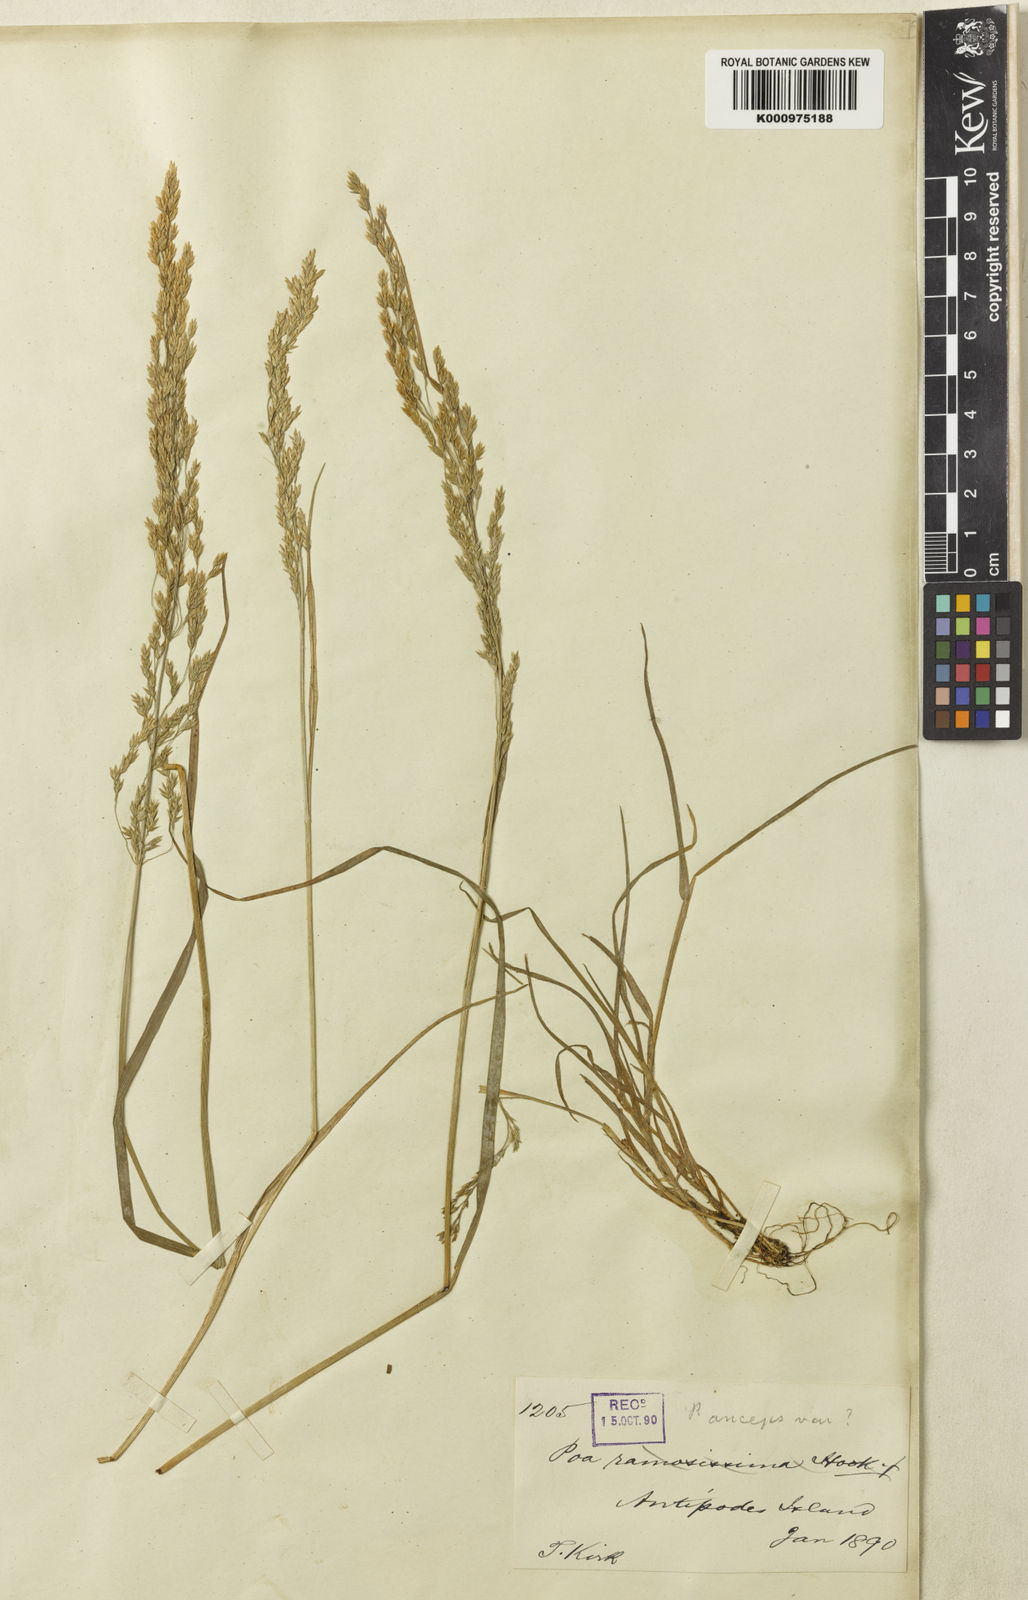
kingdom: Plantae
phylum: Tracheophyta
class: Liliopsida
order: Poales
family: Poaceae
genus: Poa
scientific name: Poa antipoda
